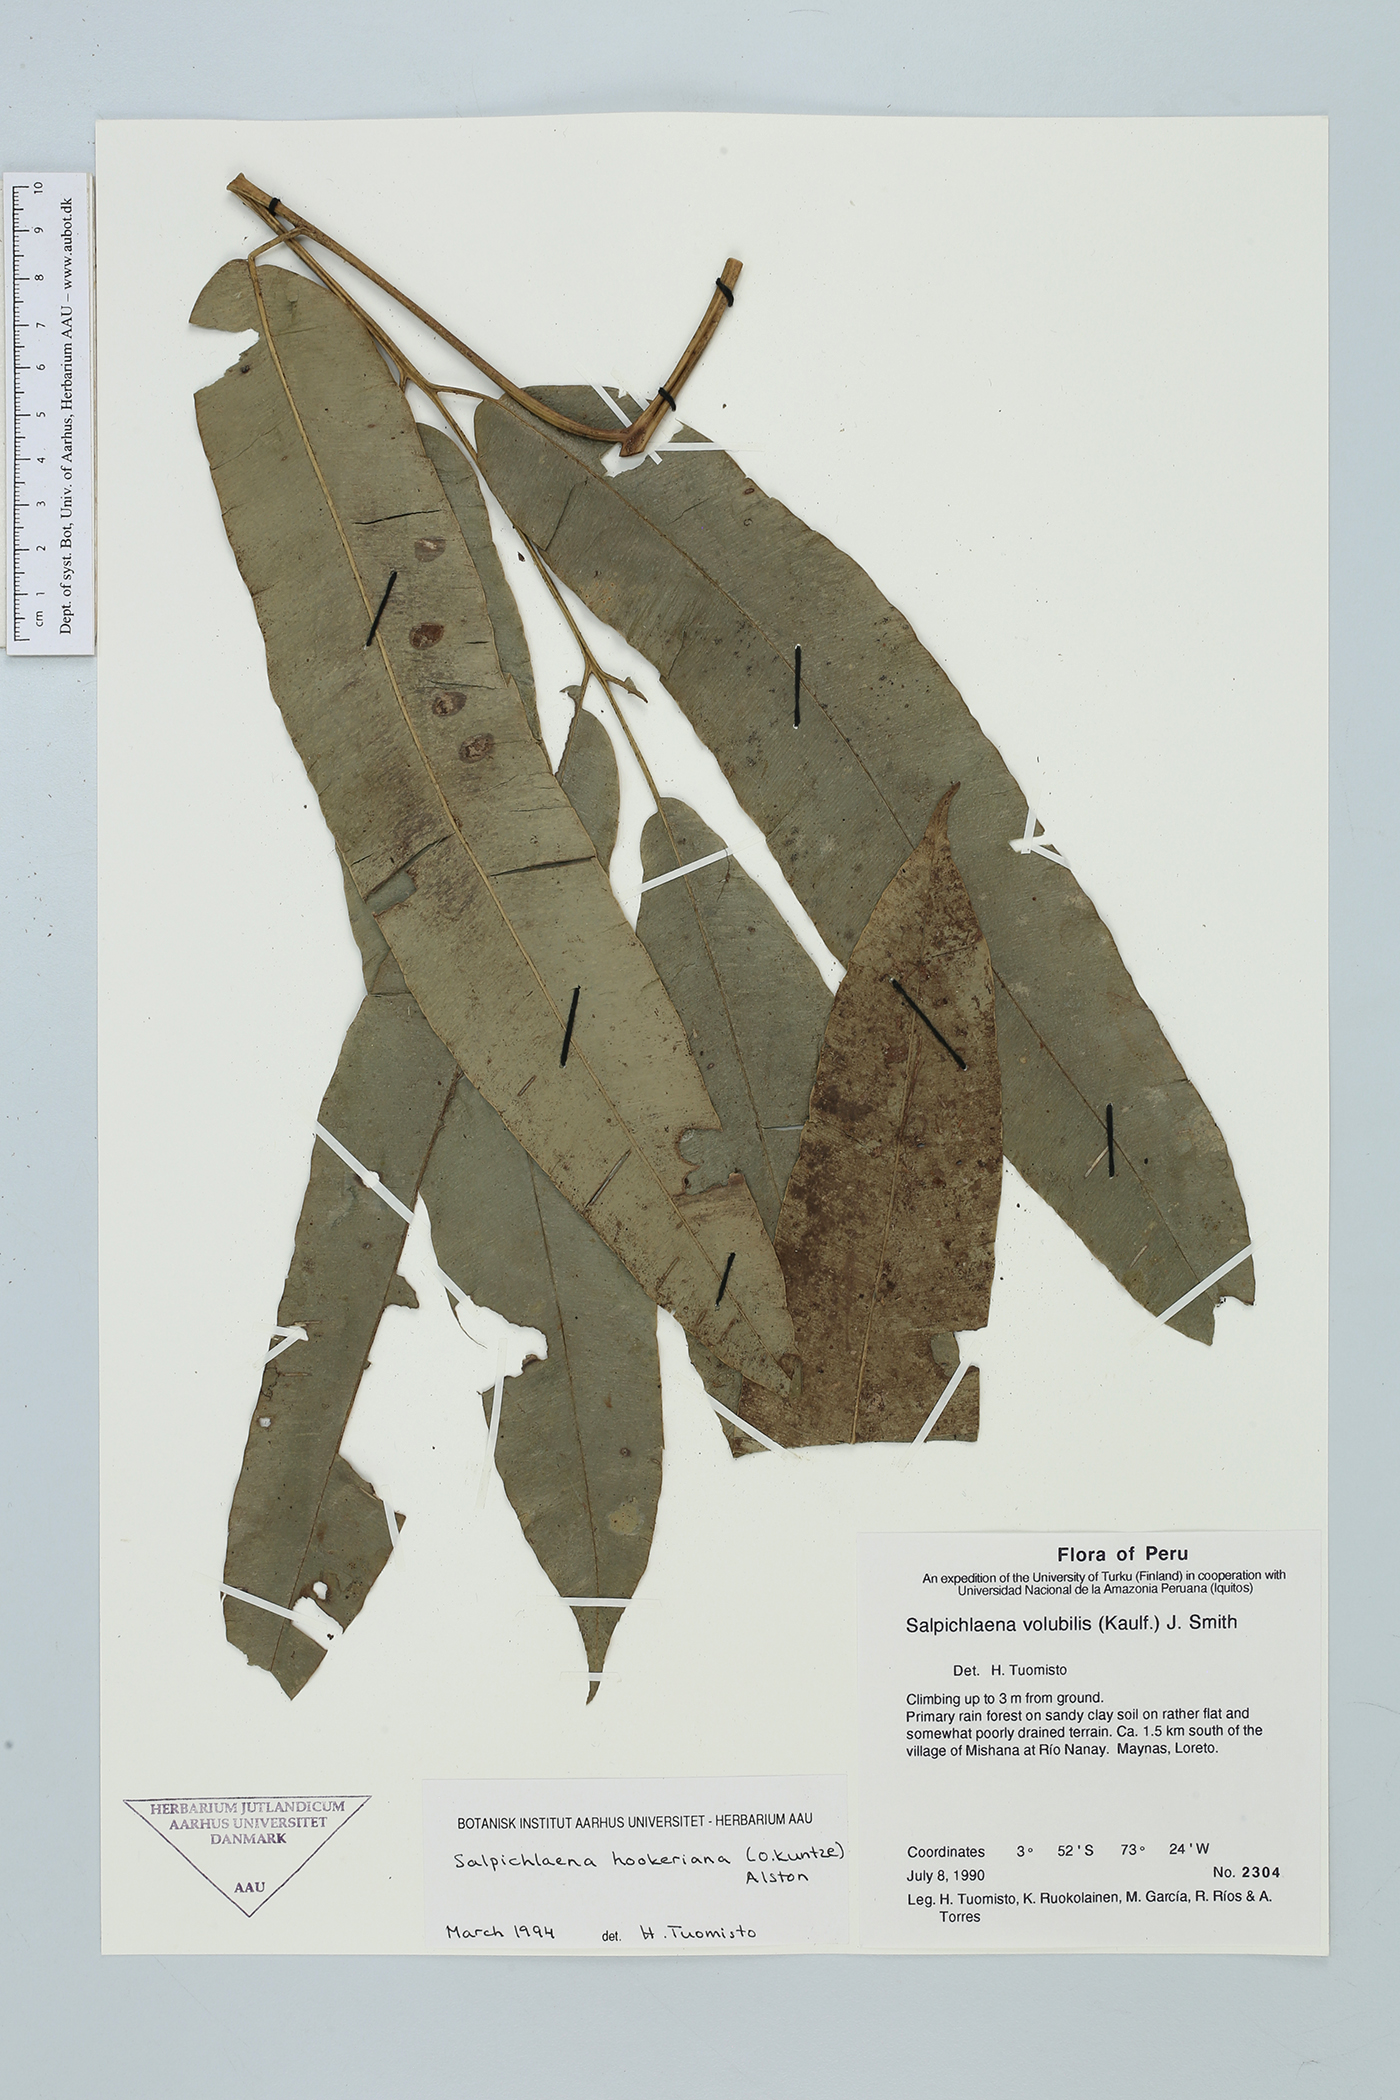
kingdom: Plantae
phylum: Tracheophyta
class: Polypodiopsida
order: Polypodiales
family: Blechnaceae
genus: Salpichlaena
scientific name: Salpichlaena hookeriana
